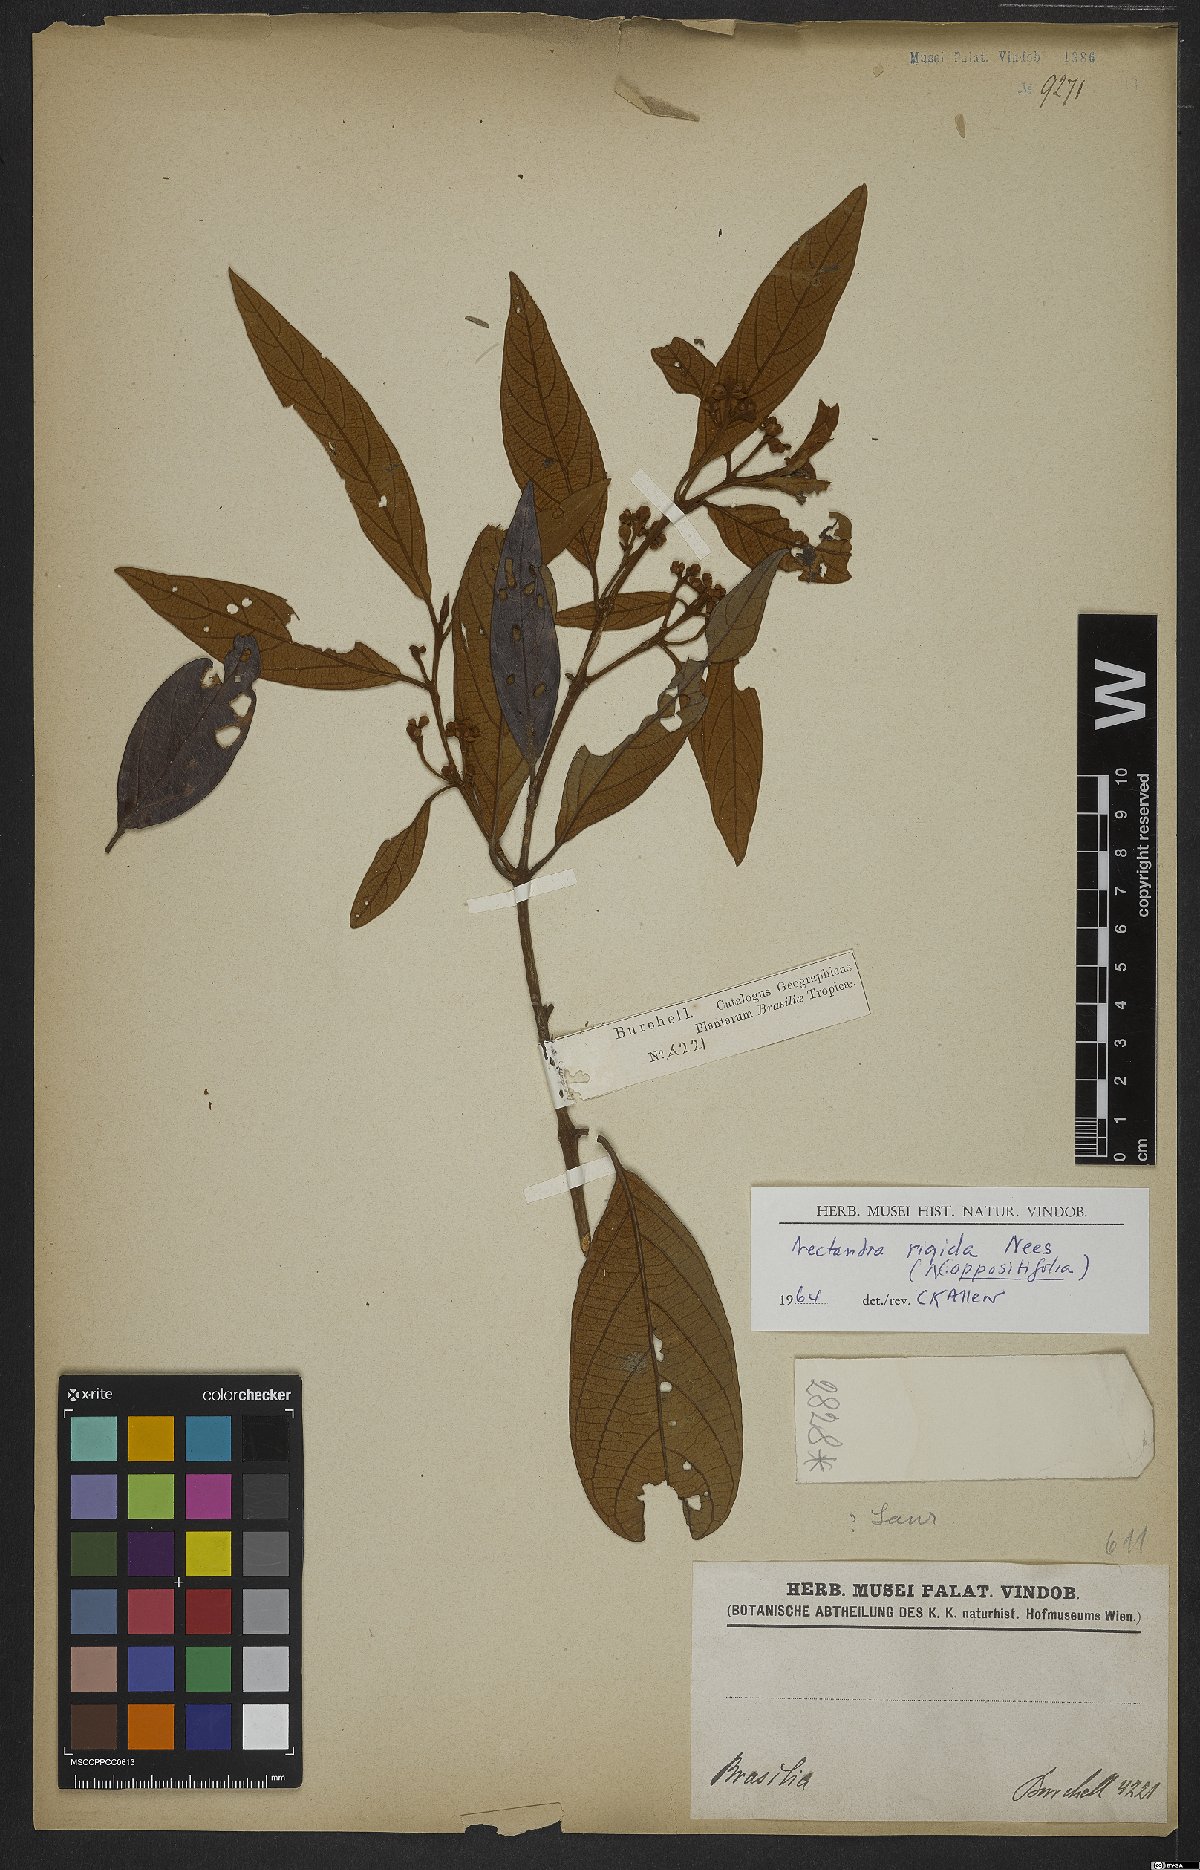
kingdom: Plantae
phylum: Tracheophyta
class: Magnoliopsida
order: Laurales
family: Lauraceae
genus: Nectandra
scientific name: Nectandra oppositifolia
